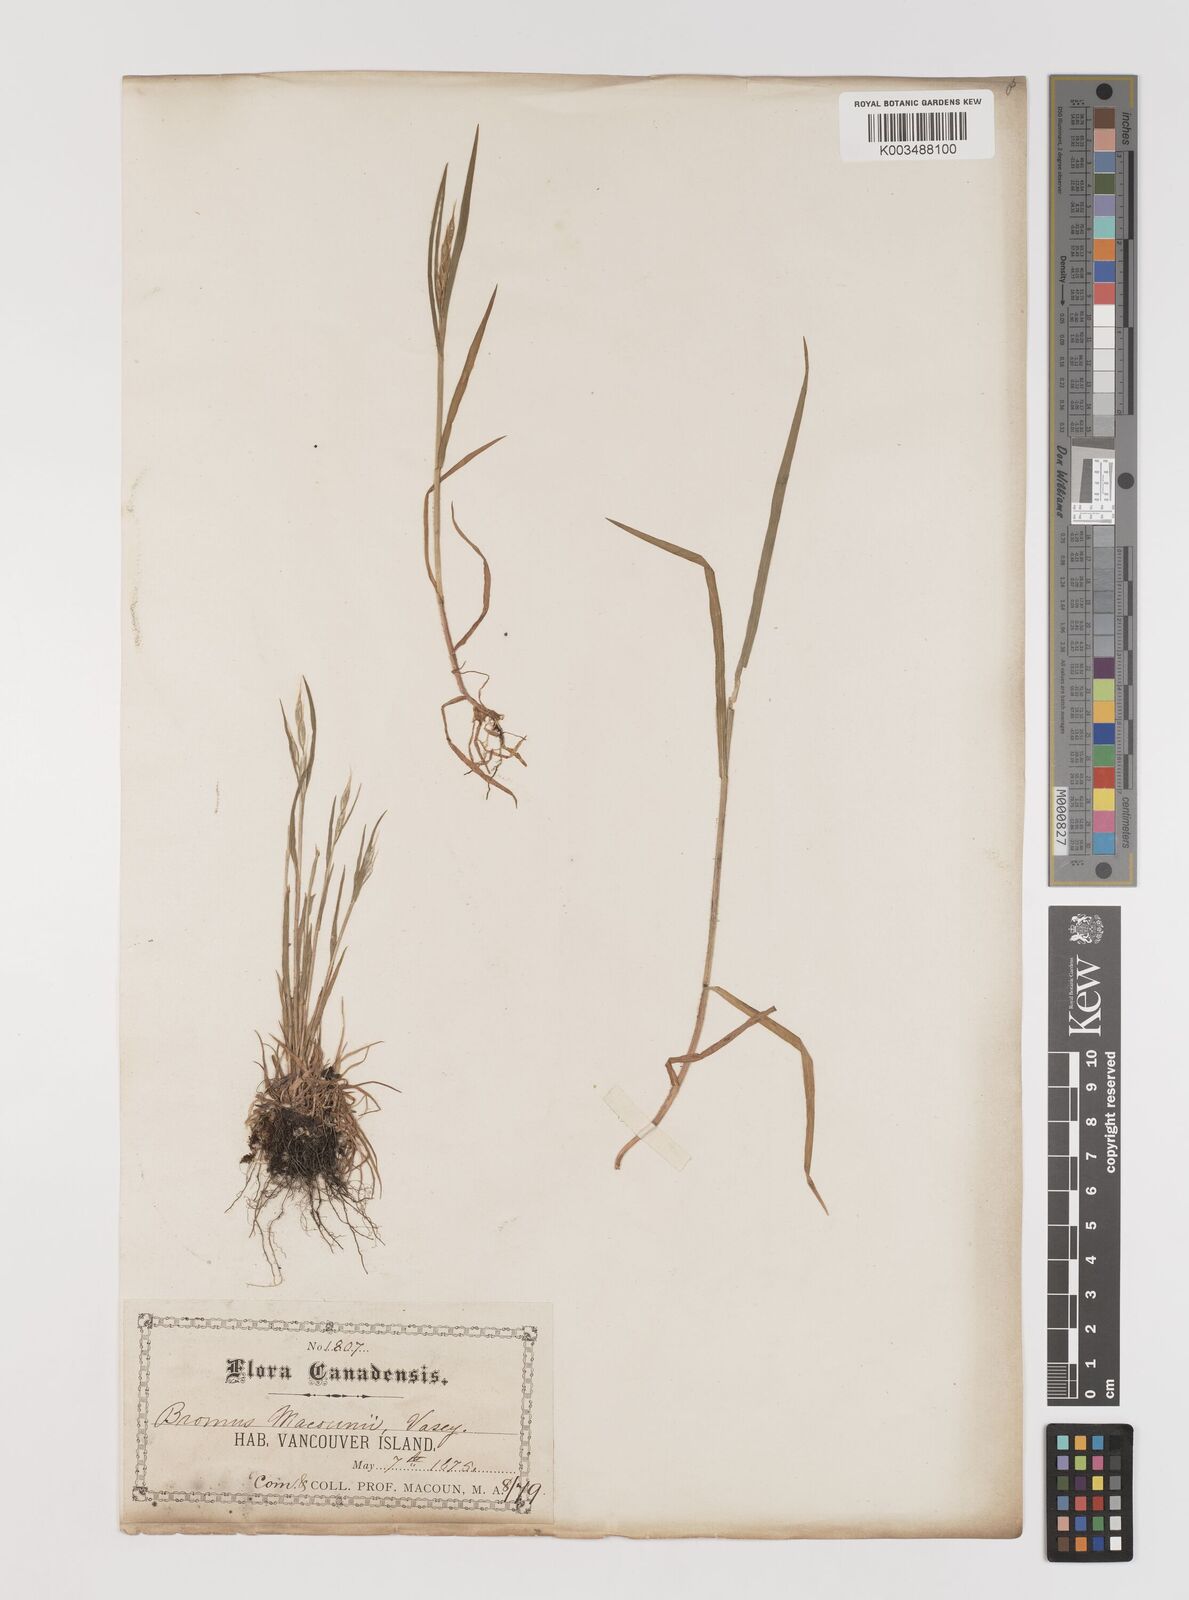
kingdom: Plantae
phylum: Tracheophyta
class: Liliopsida
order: Poales
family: Poaceae
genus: Bromus
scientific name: Bromus pumpellianus
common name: Pumpelly's brome
